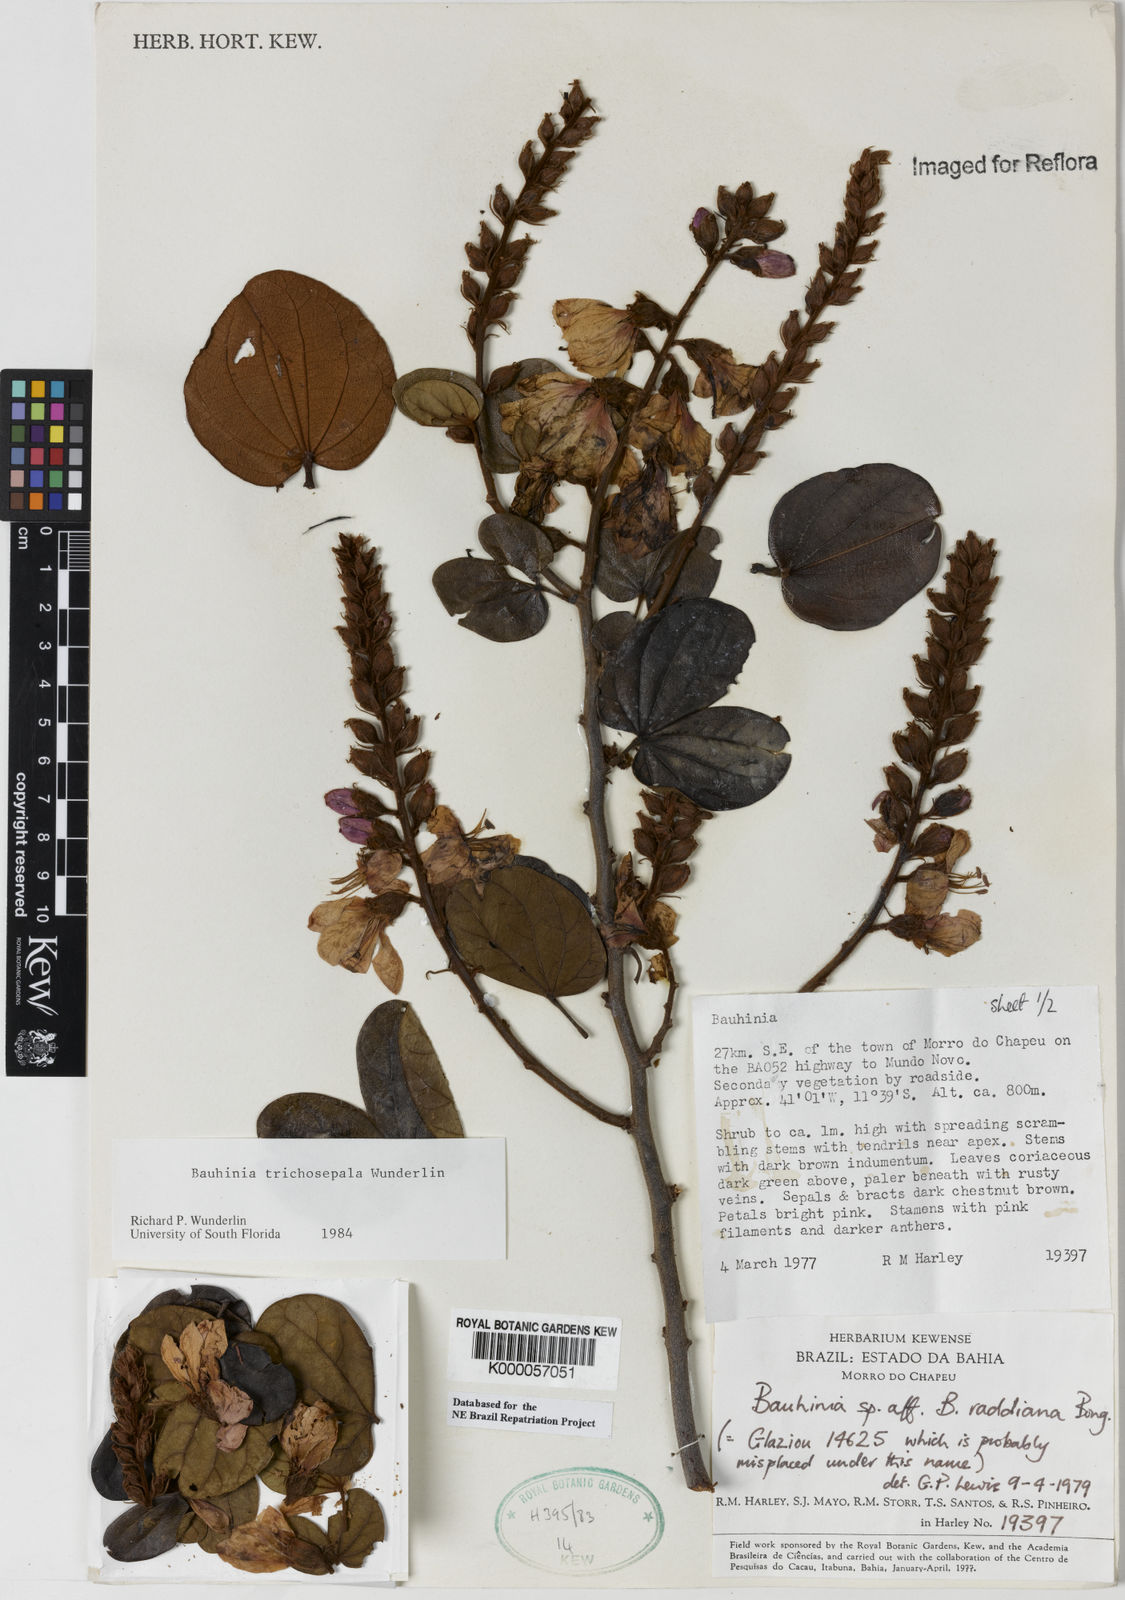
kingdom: Plantae
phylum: Tracheophyta
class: Magnoliopsida
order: Fabales
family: Fabaceae
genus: Schnella
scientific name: Schnella trichosepala
